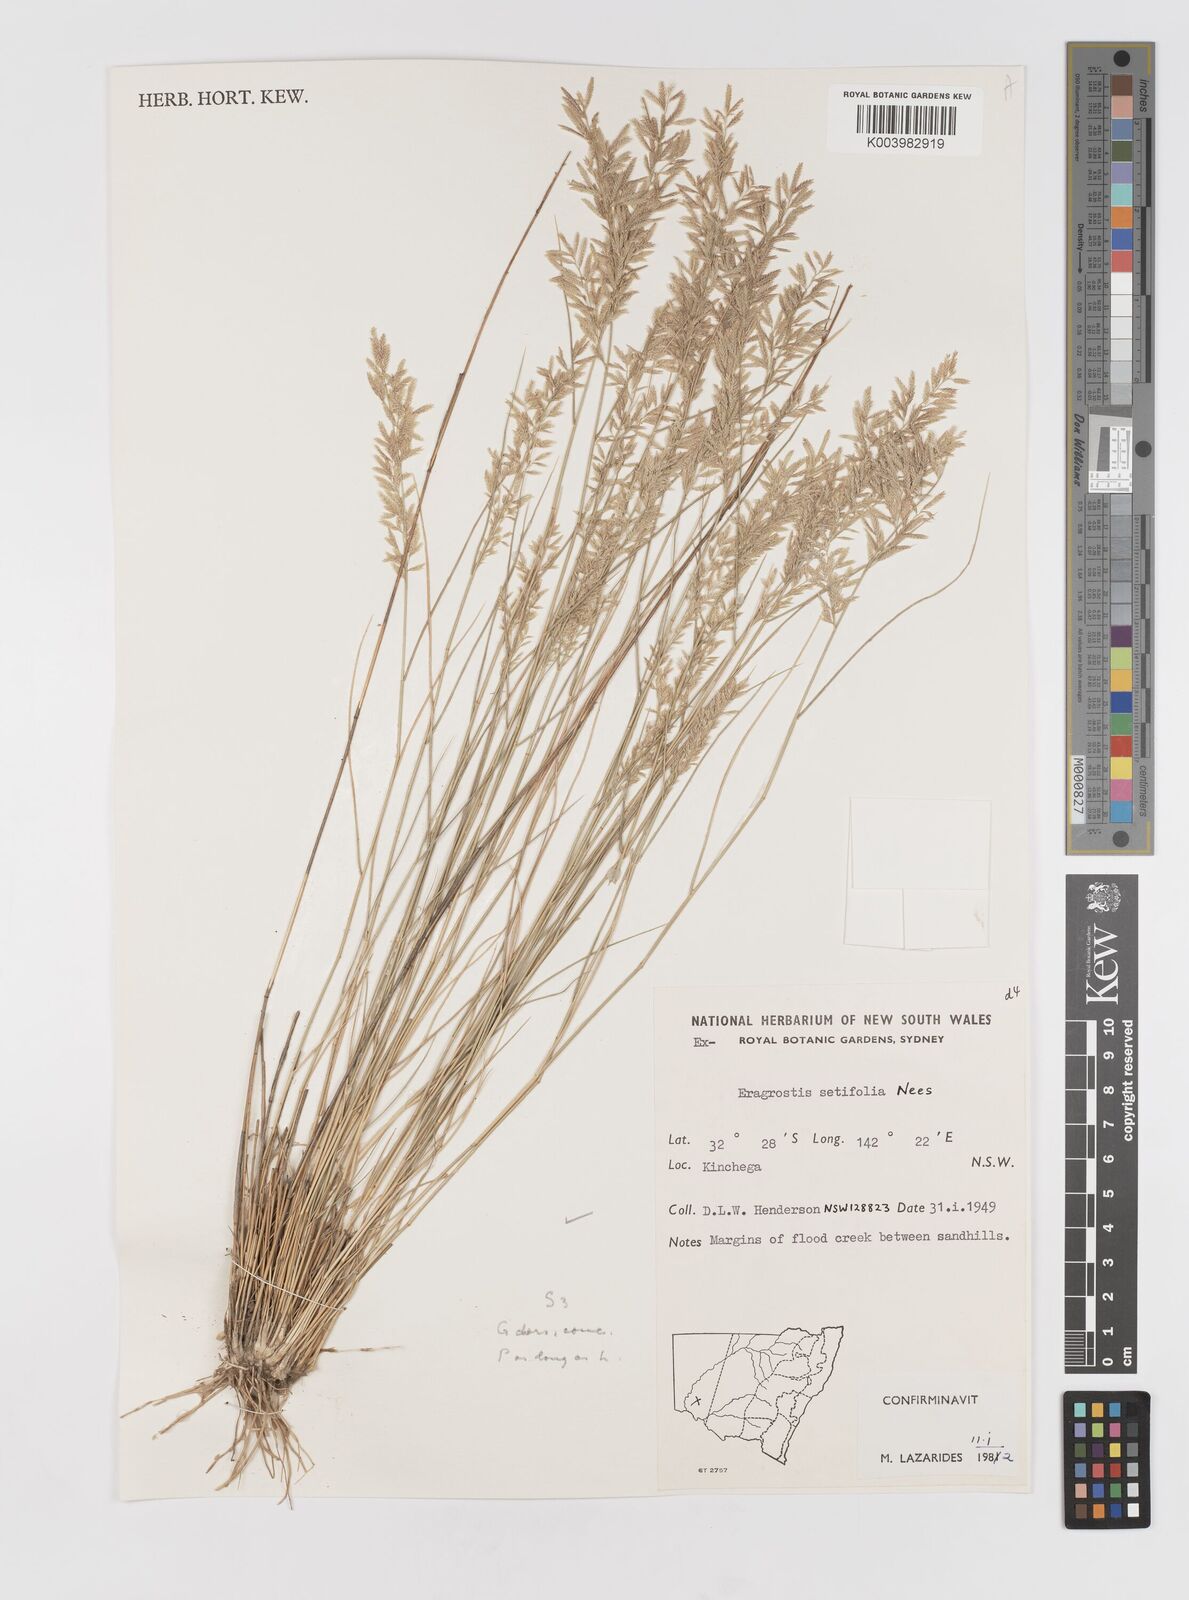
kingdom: Plantae
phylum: Tracheophyta
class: Liliopsida
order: Poales
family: Poaceae
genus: Eragrostis
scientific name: Eragrostis setifolia
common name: Bristleleaf lovegrass
